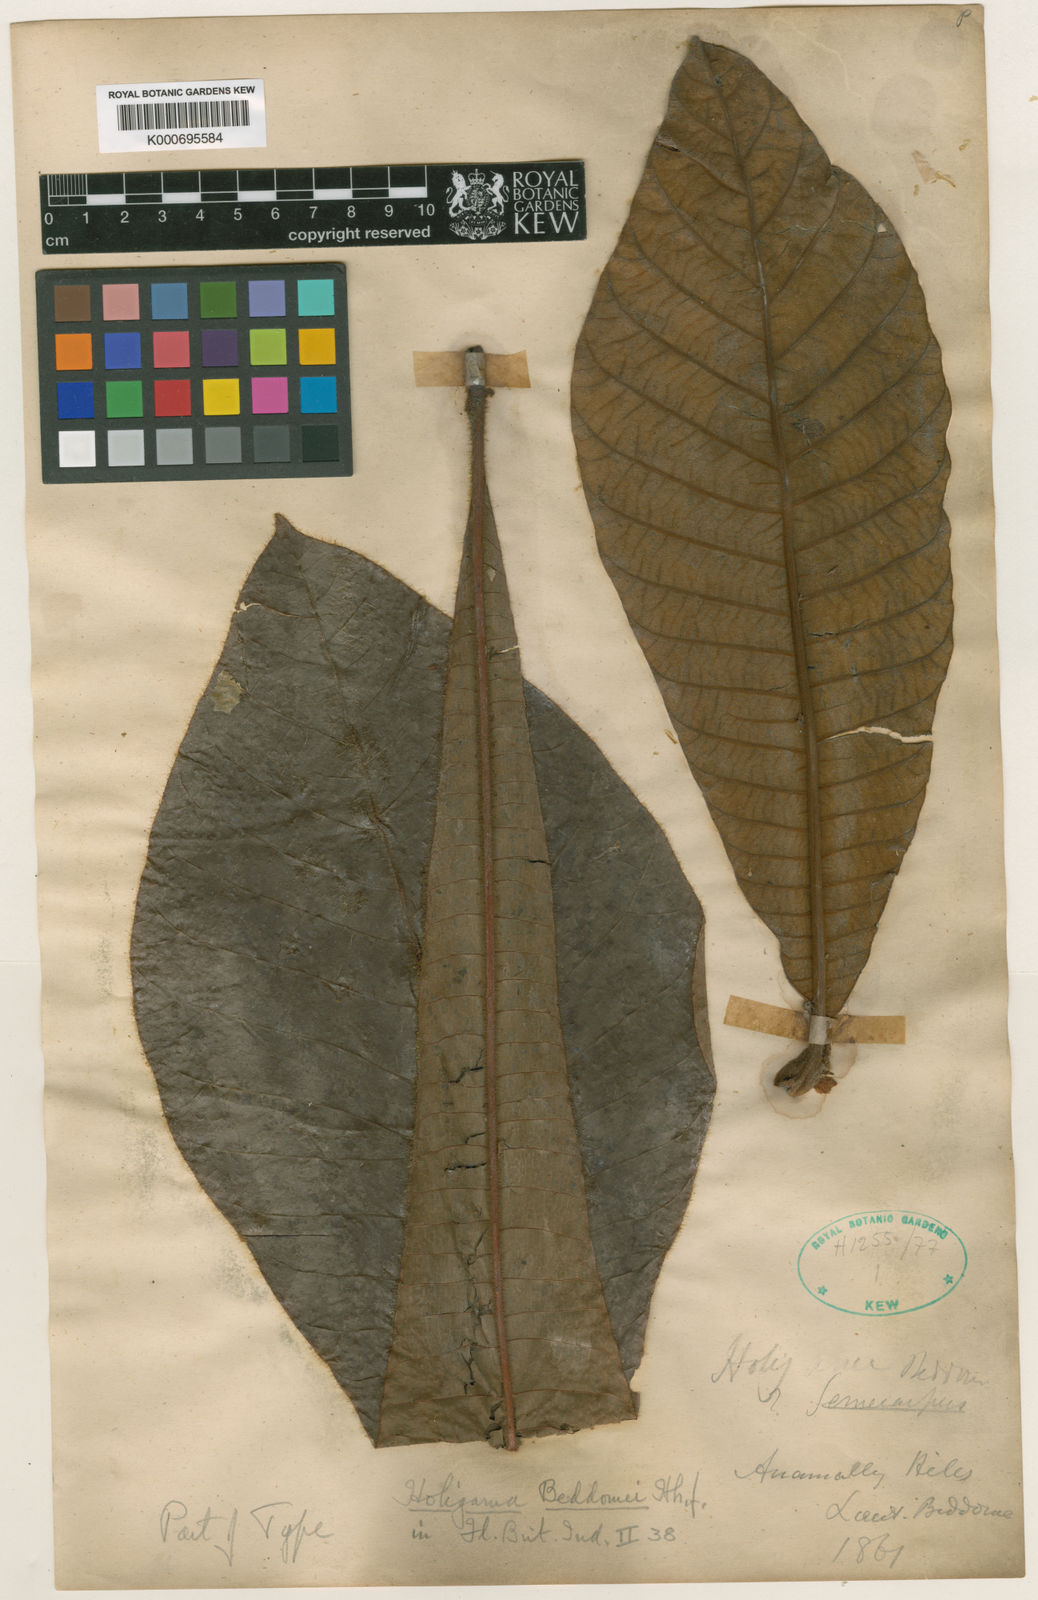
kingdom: Plantae
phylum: Tracheophyta
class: Magnoliopsida
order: Sapindales
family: Anacardiaceae
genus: Holigarna
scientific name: Holigarna beddomei
